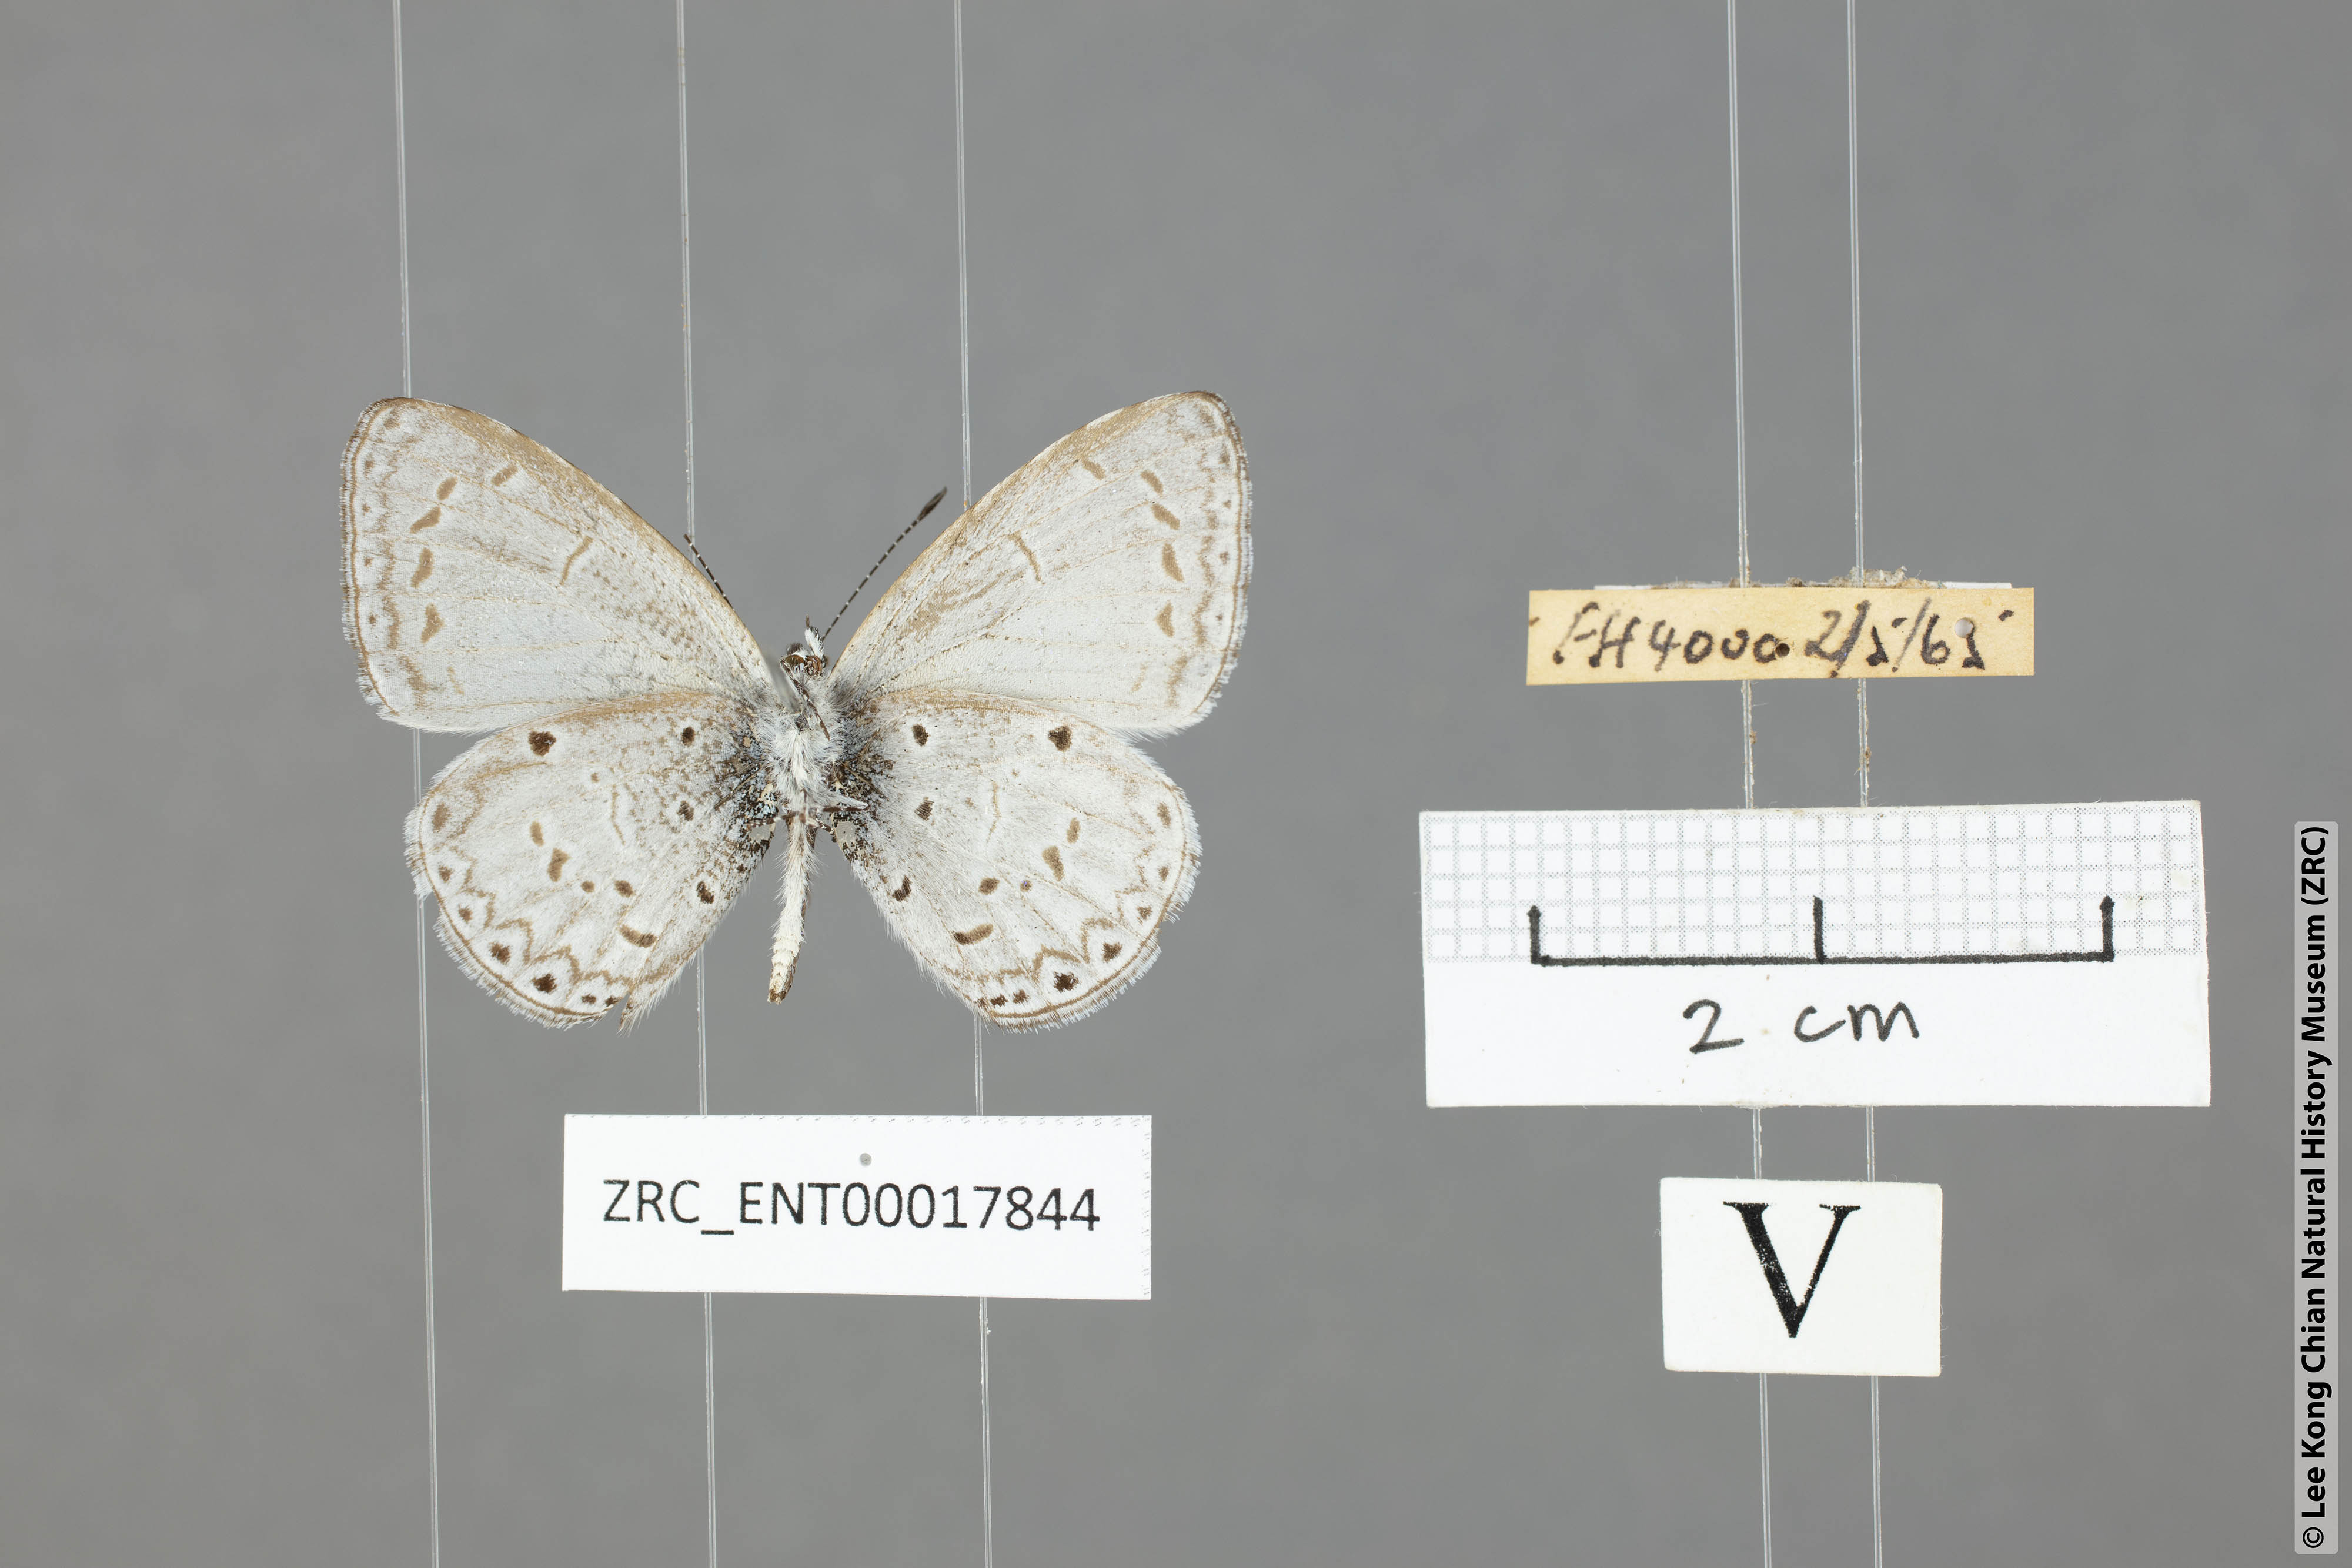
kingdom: Animalia
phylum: Arthropoda
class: Insecta
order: Lepidoptera
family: Lycaenidae
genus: Udara
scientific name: Udara
